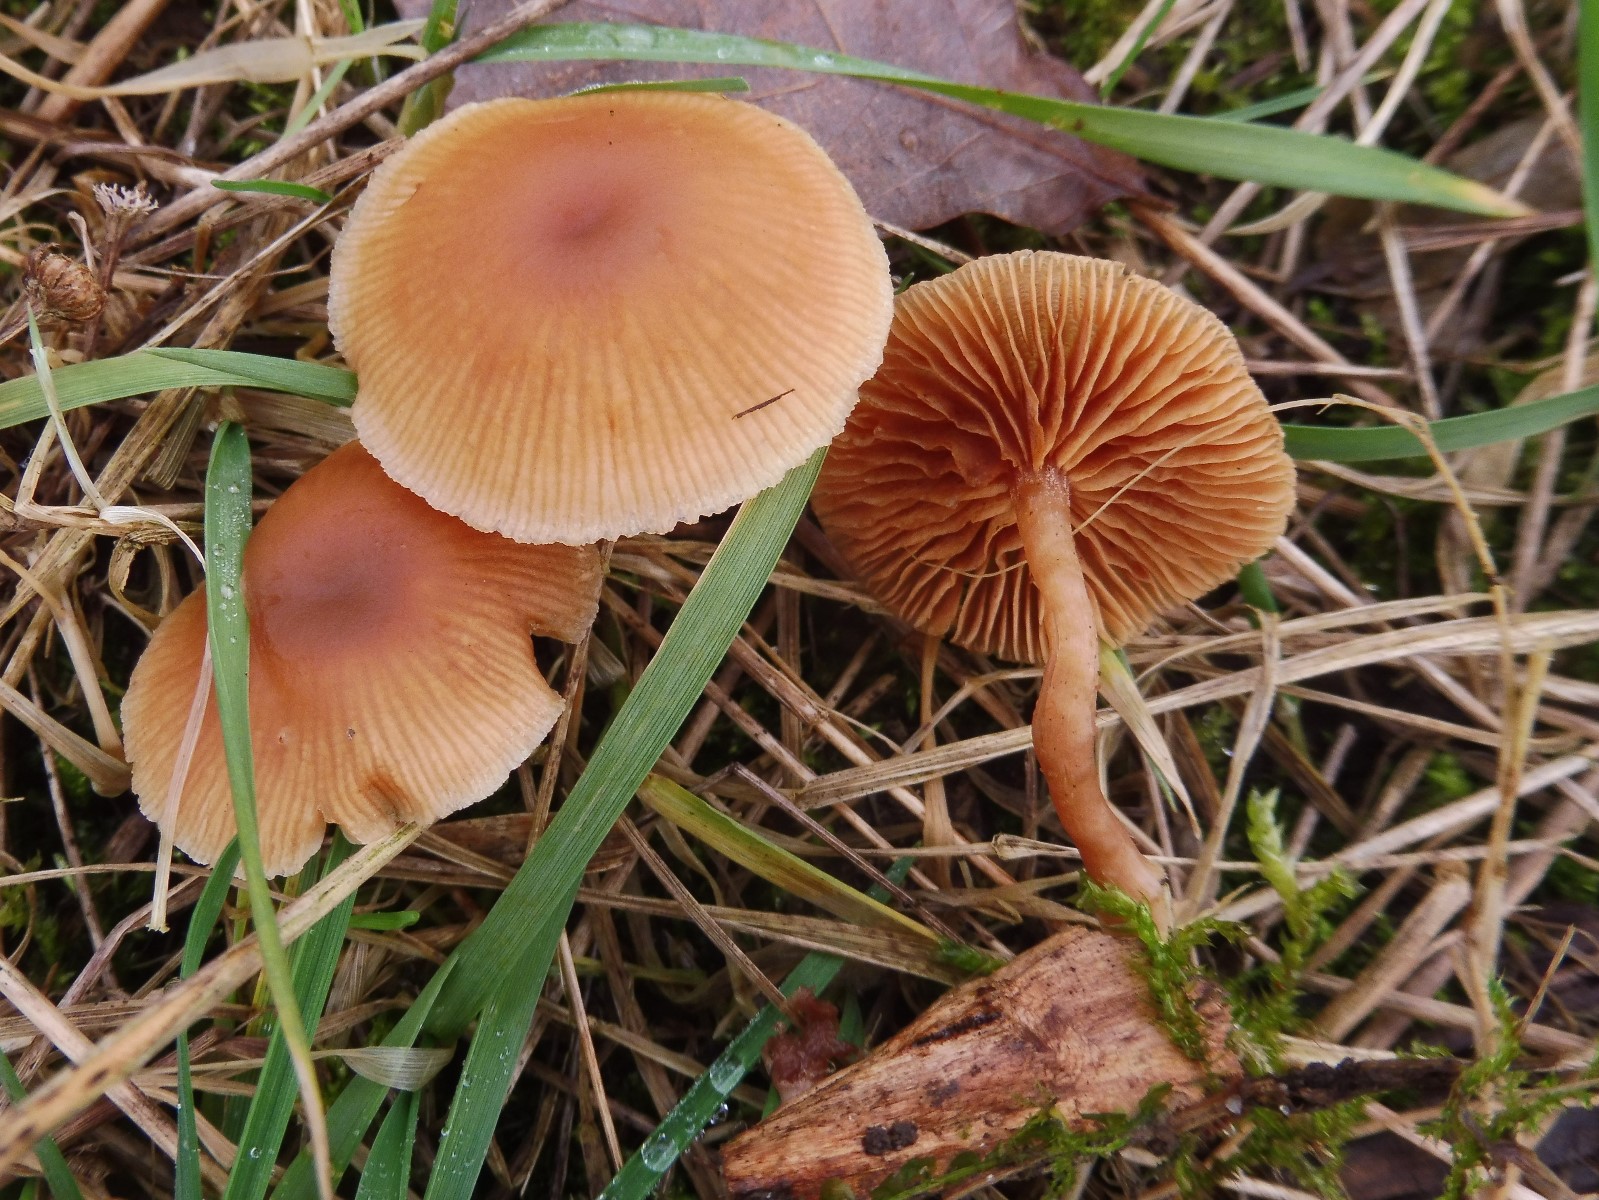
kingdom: Fungi
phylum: Basidiomycota
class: Agaricomycetes
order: Agaricales
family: Tubariaceae
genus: Tubaria
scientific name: Tubaria furfuracea
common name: kliddet fnughat
